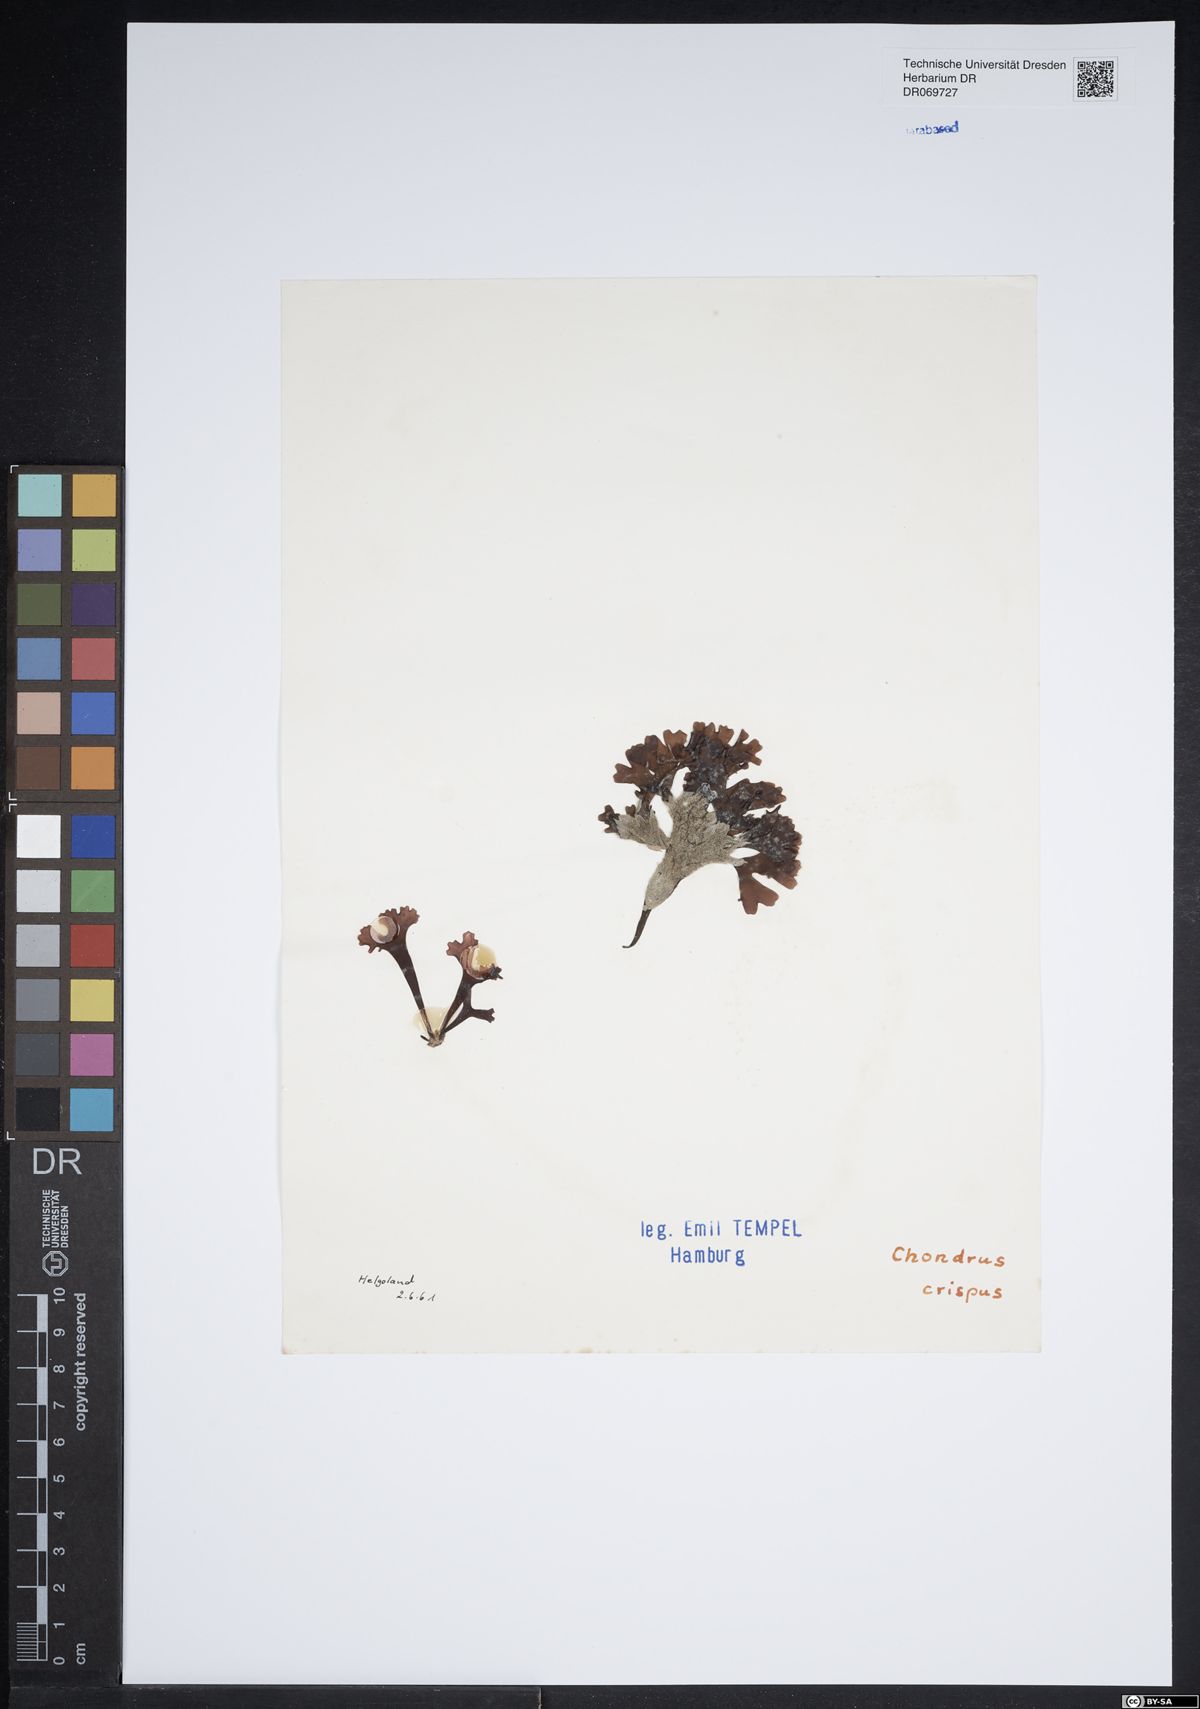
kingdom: Plantae
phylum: Rhodophyta
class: Florideophyceae
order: Gigartinales
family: Gigartinaceae
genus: Chondrus
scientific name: Chondrus crispus
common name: Carrageen
